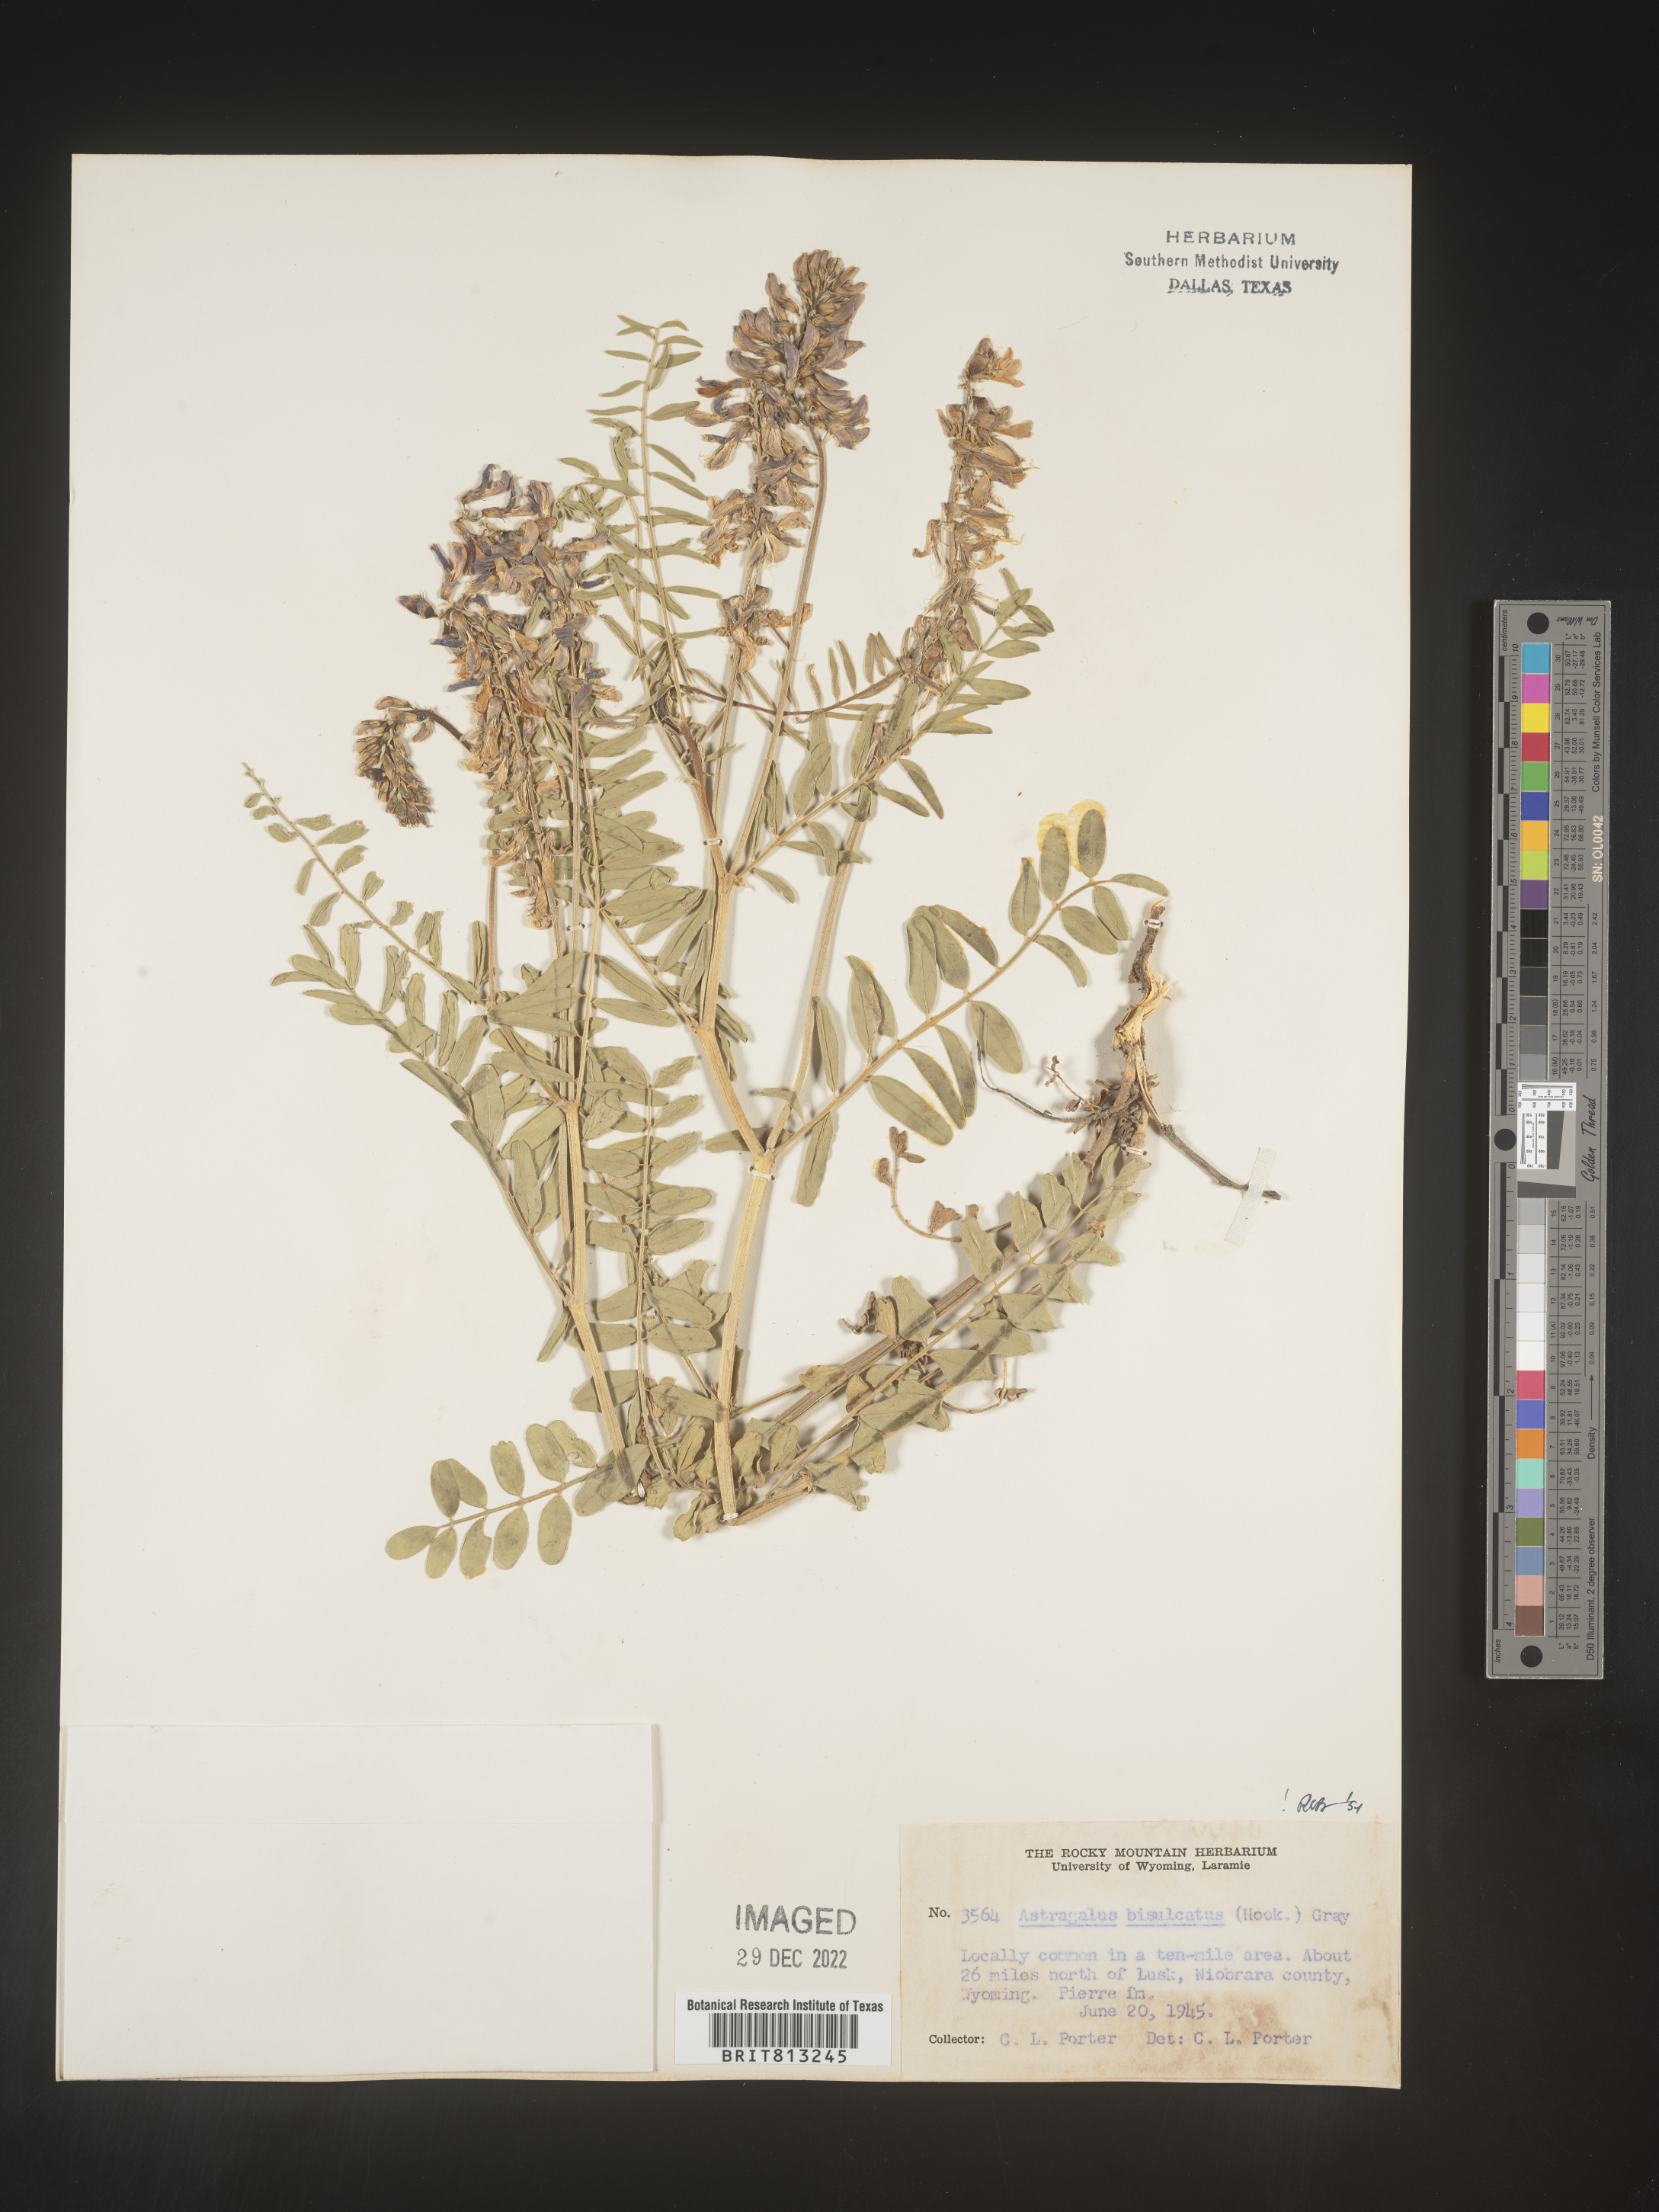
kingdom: Plantae
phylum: Tracheophyta
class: Magnoliopsida
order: Fabales
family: Fabaceae
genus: Astragalus
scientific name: Astragalus bisulcatus
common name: Two-groove milk-vetch
